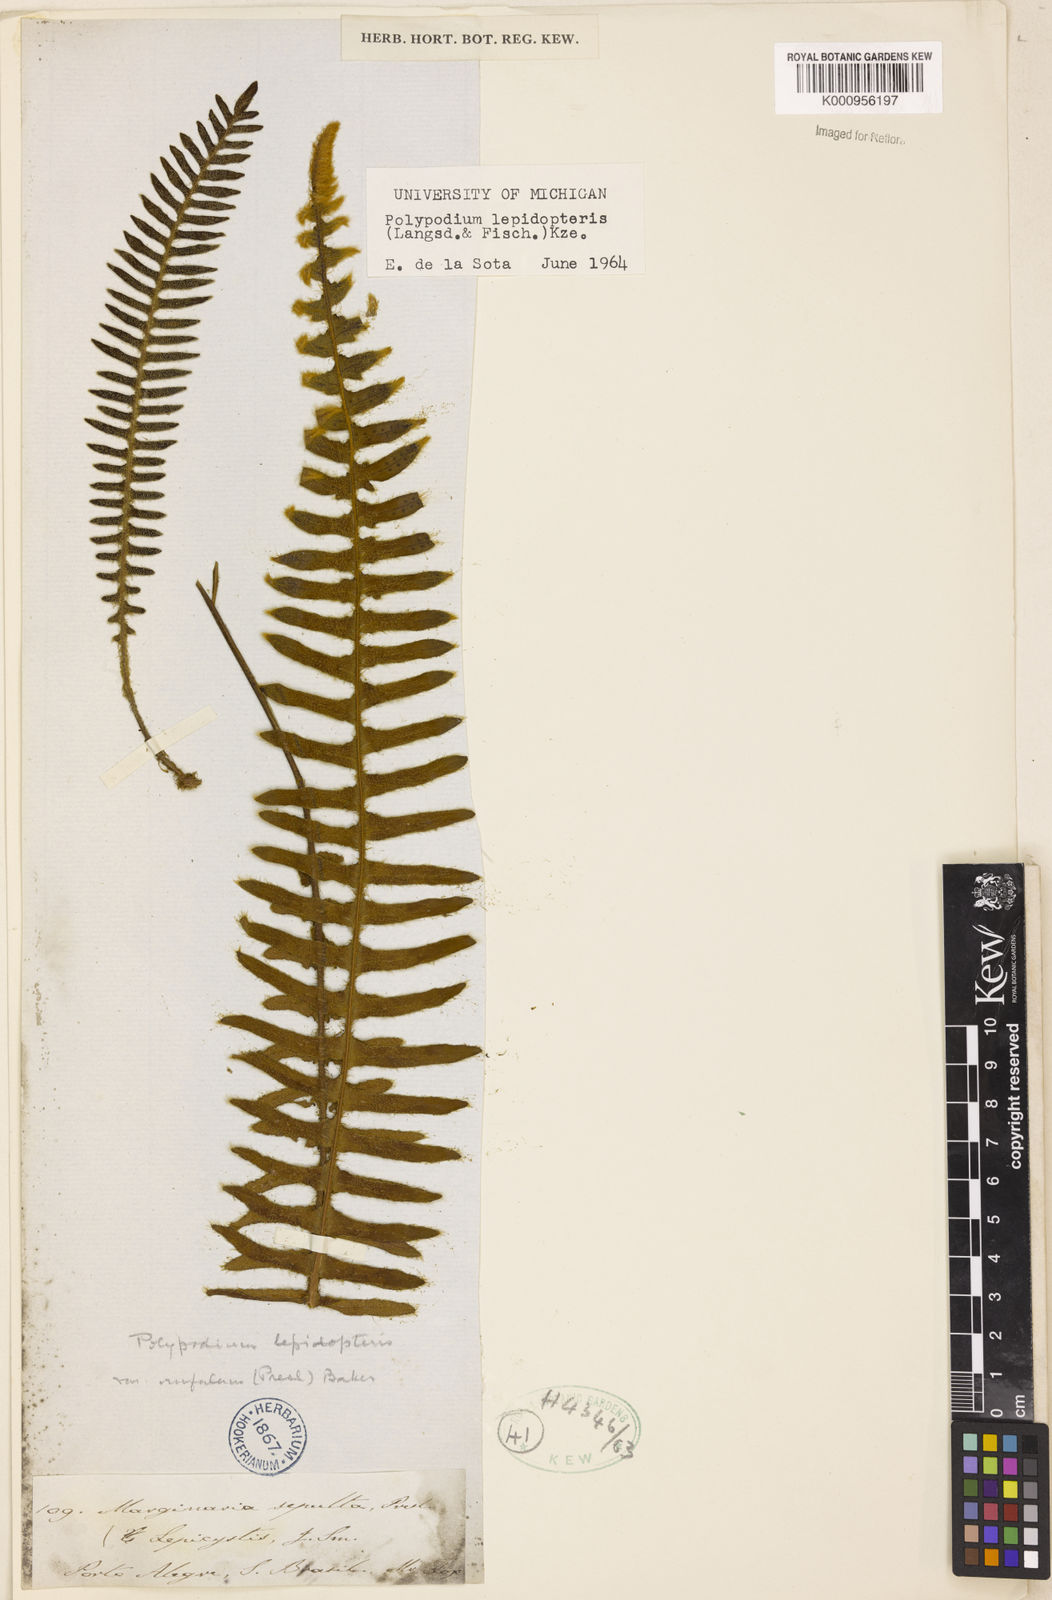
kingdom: Plantae
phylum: Tracheophyta
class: Polypodiopsida
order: Polypodiales
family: Polypodiaceae
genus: Pleopeltis
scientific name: Pleopeltis lepidopteris
